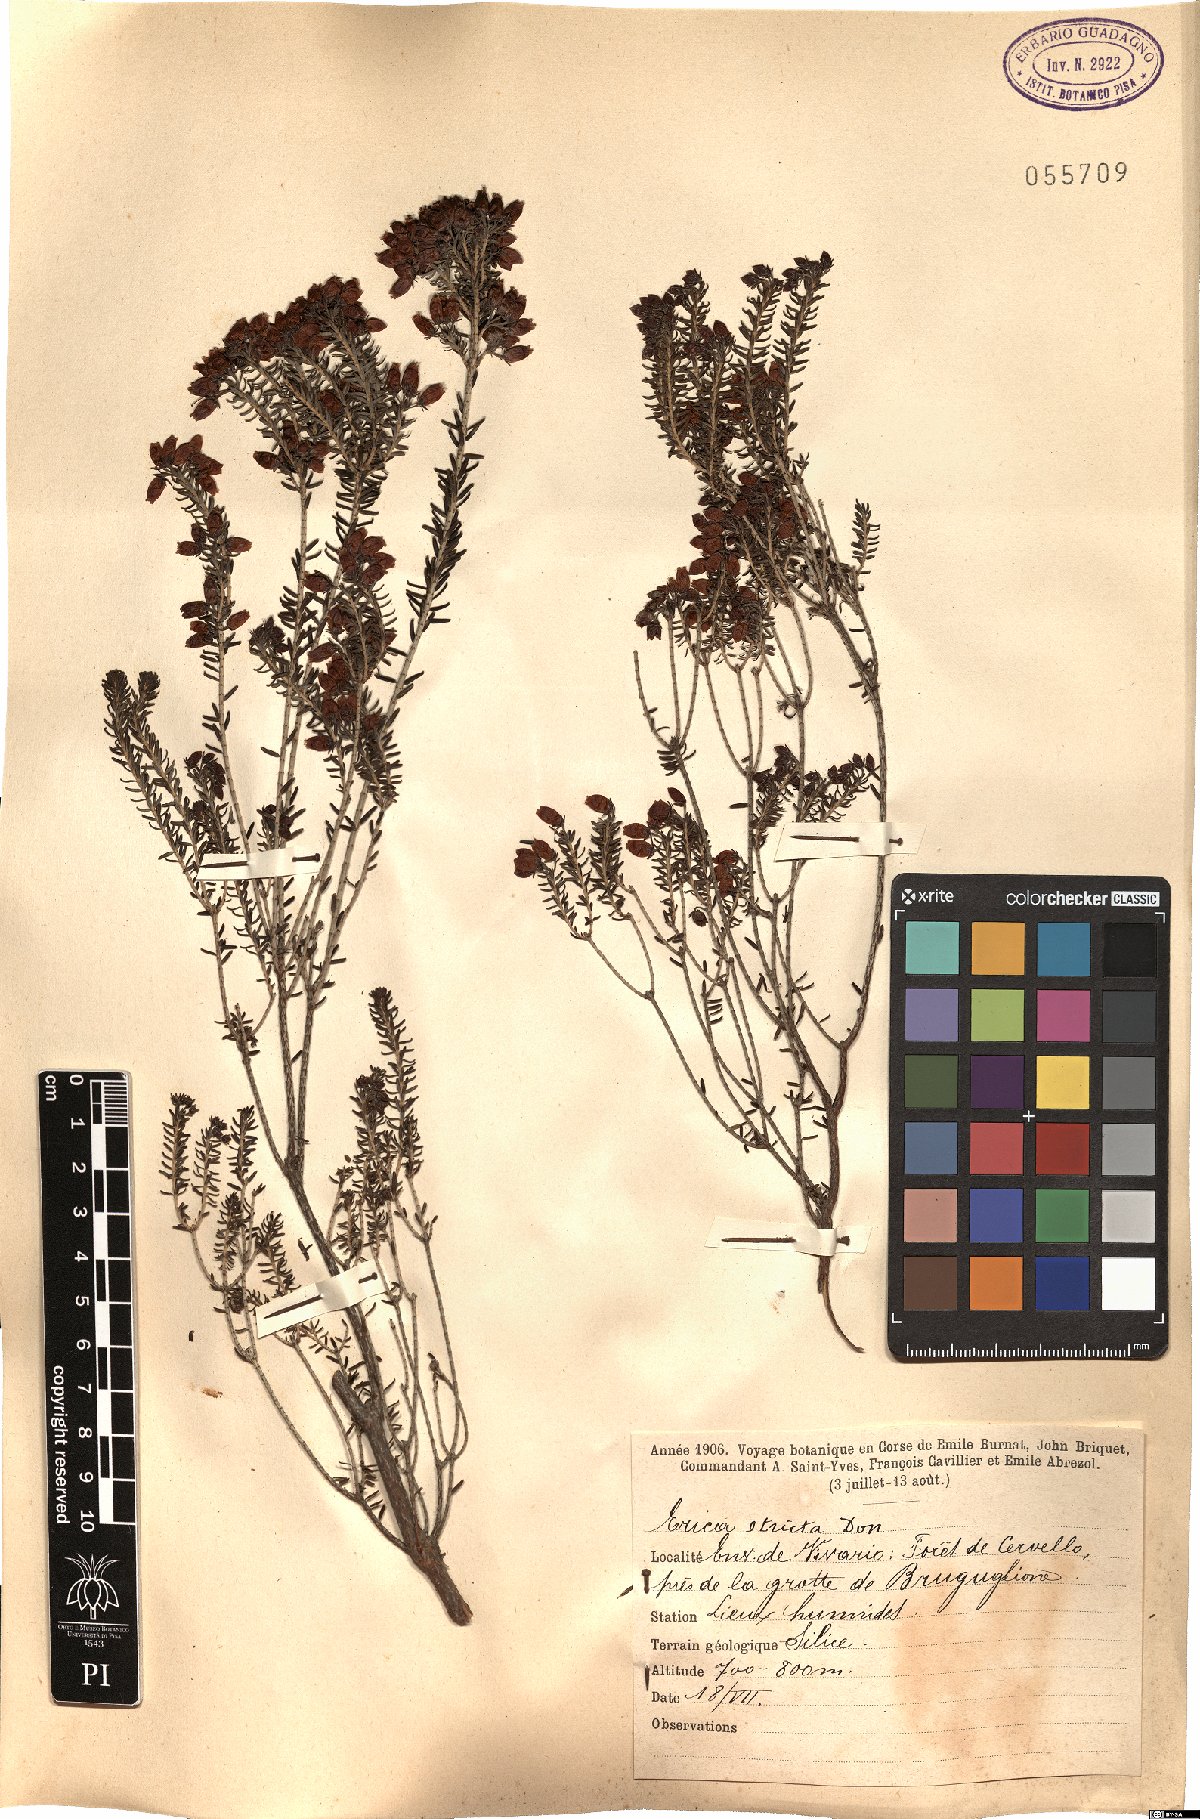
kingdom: Plantae
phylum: Tracheophyta
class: Magnoliopsida
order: Ericales
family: Ericaceae
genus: Erica
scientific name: Erica terminalis
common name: Corsican heath
